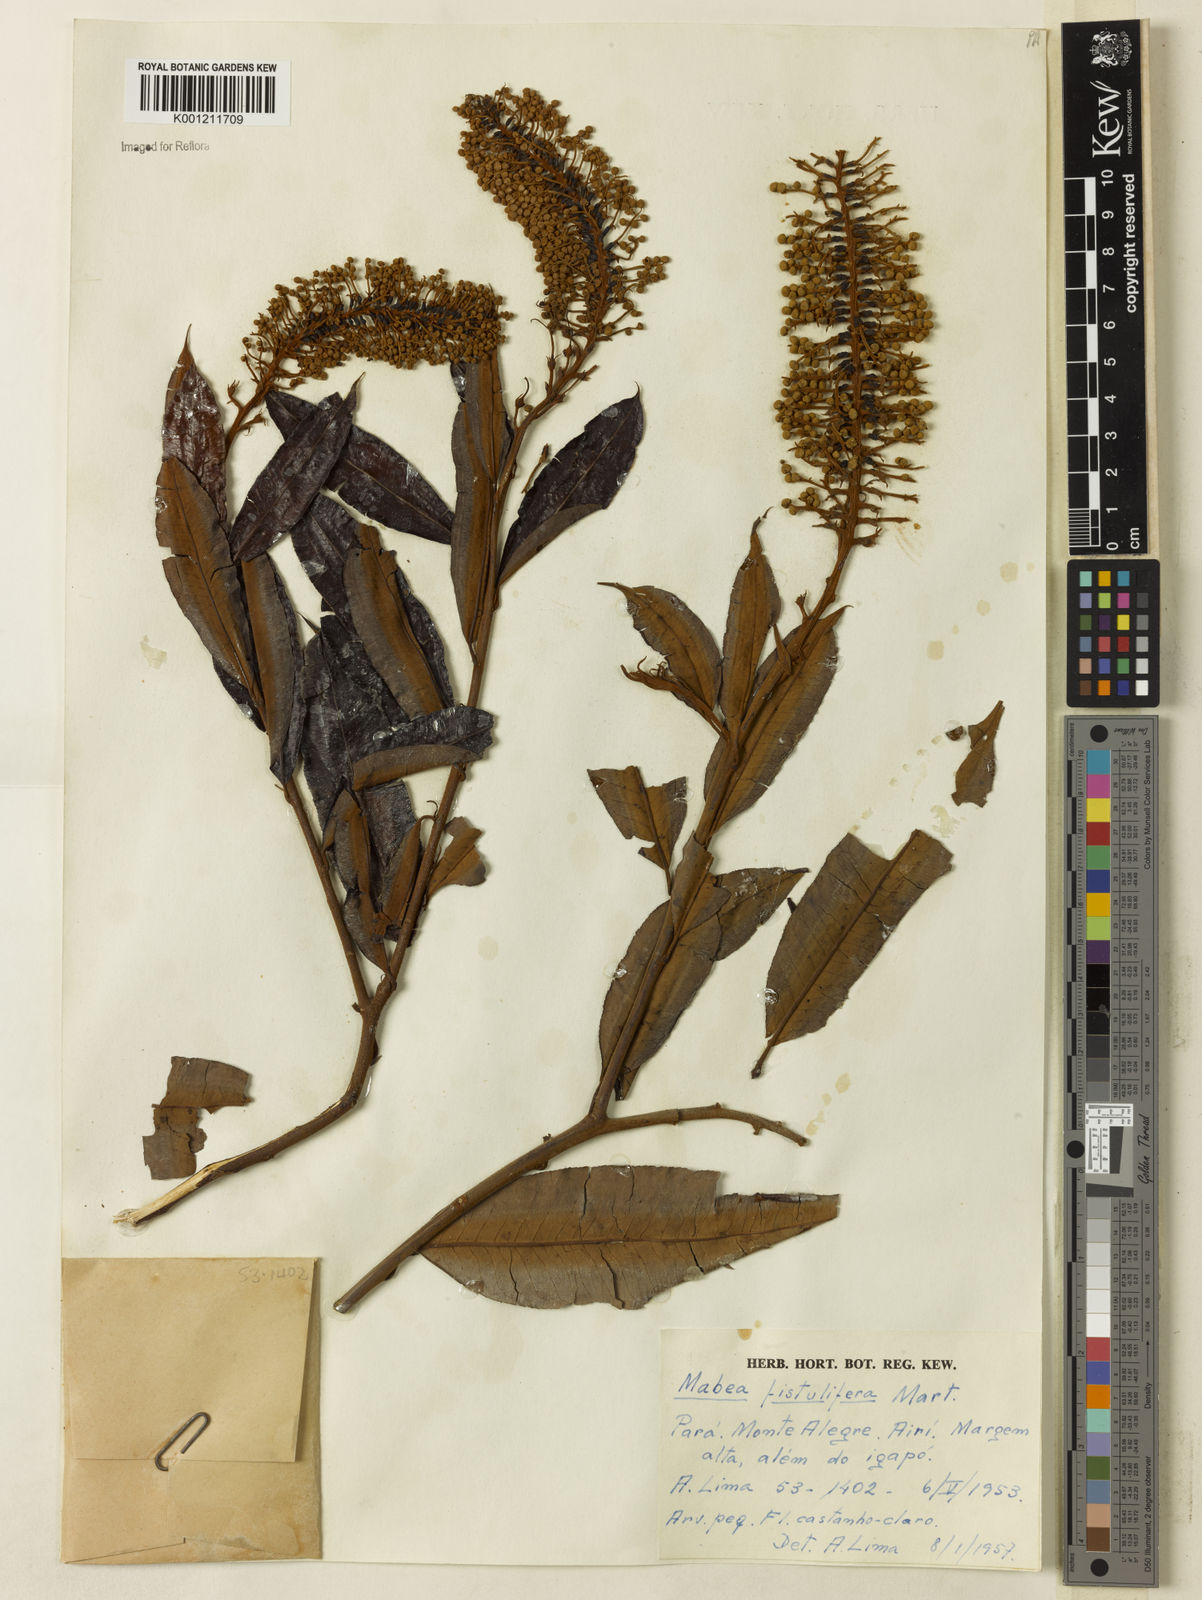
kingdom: Plantae
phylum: Tracheophyta
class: Magnoliopsida
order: Malpighiales
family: Euphorbiaceae
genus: Mabea
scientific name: Mabea fistulifera
